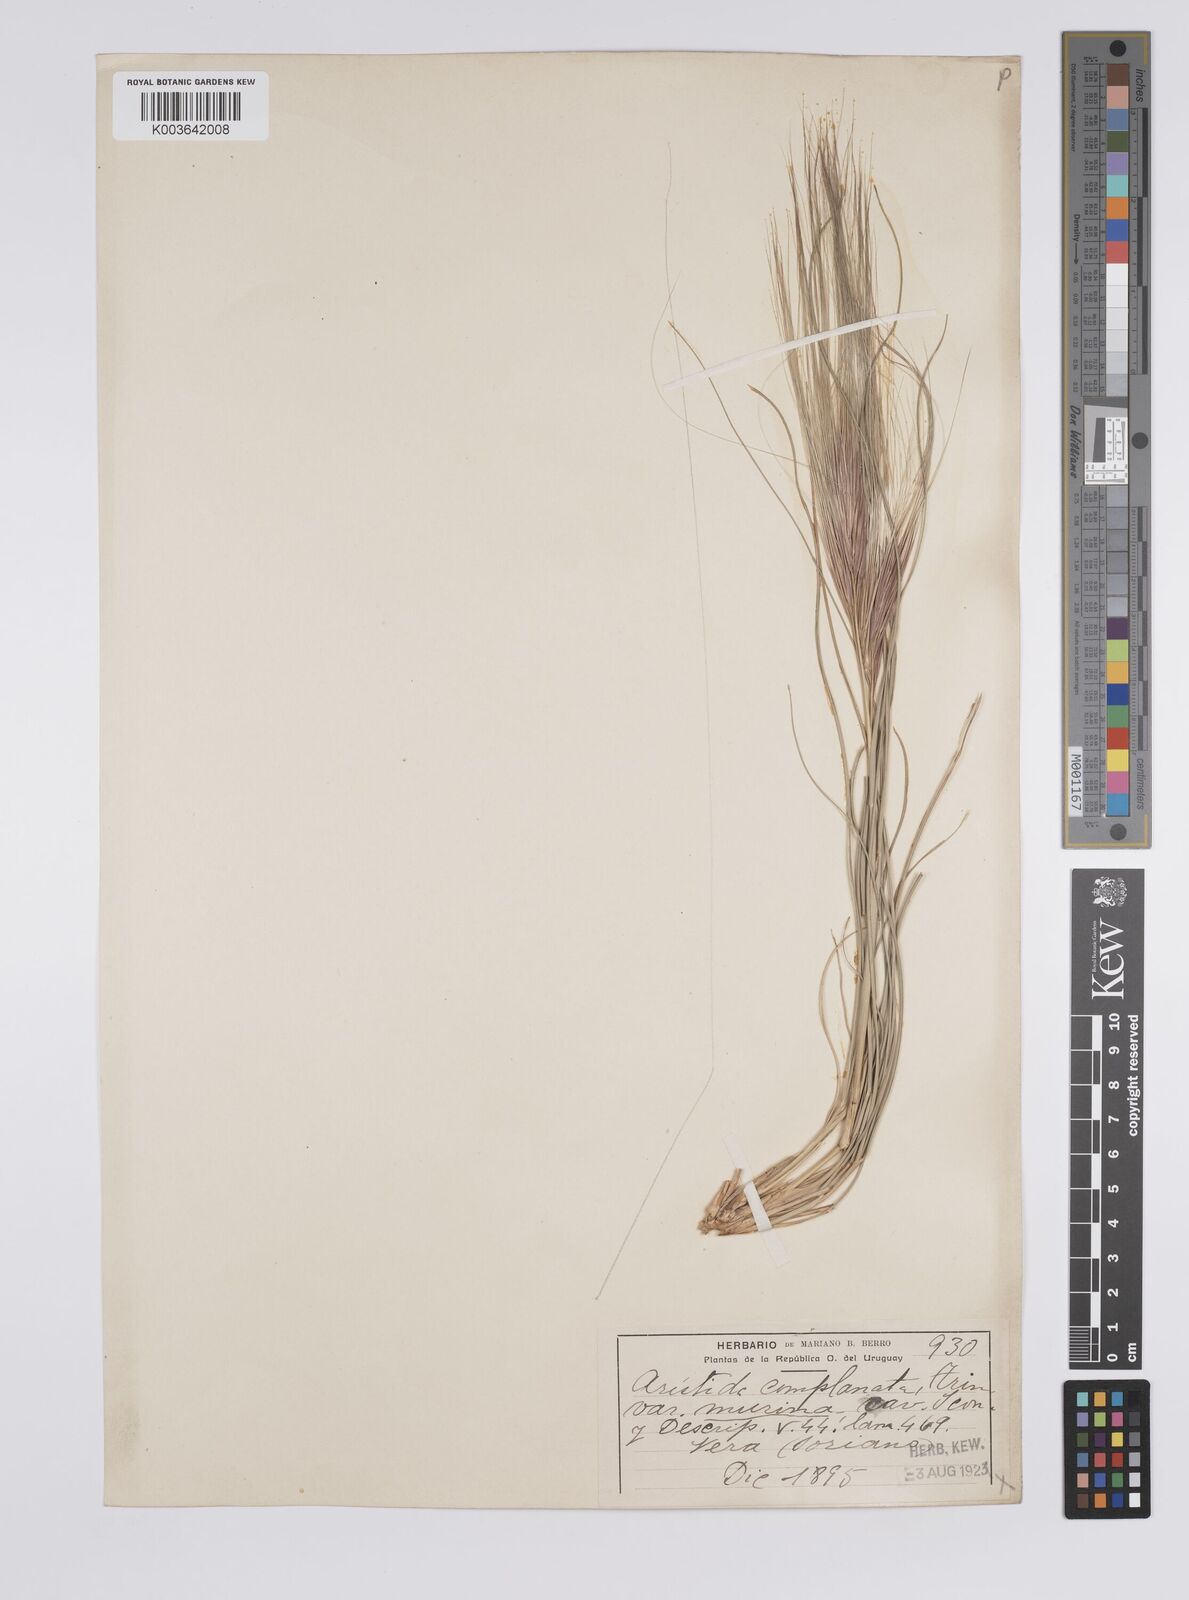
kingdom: Plantae
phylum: Tracheophyta
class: Liliopsida
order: Poales
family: Poaceae
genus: Aristida
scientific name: Aristida murina
